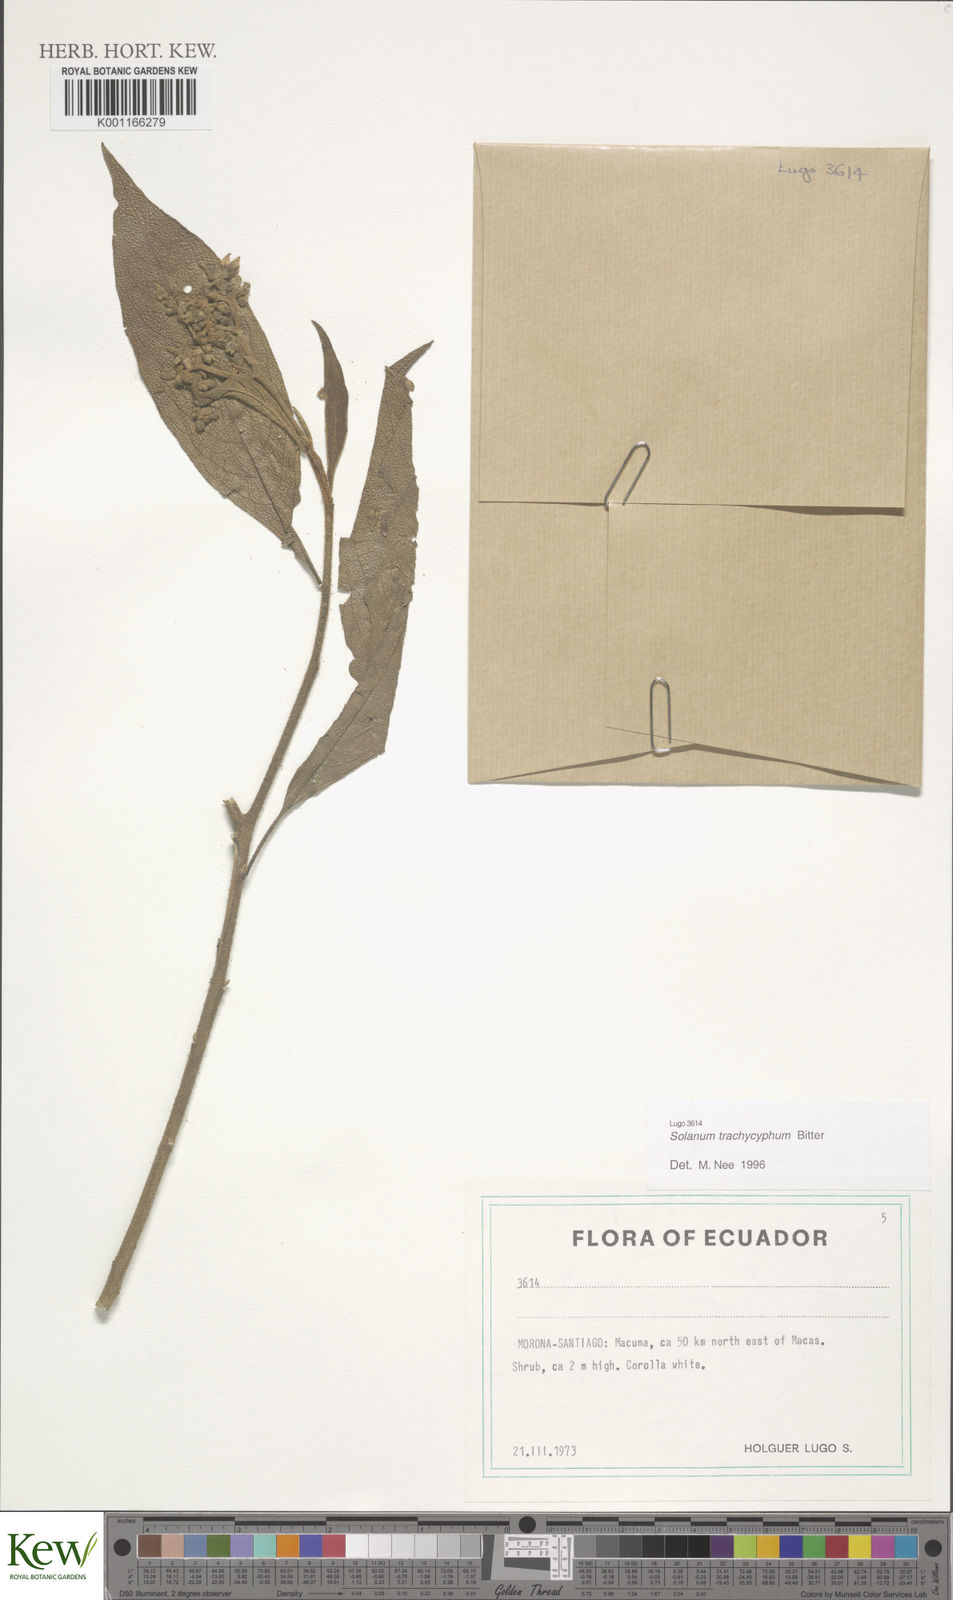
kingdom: Plantae
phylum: Tracheophyta
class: Magnoliopsida
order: Solanales
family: Solanaceae
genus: Solanum
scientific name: Solanum trachycyphum
